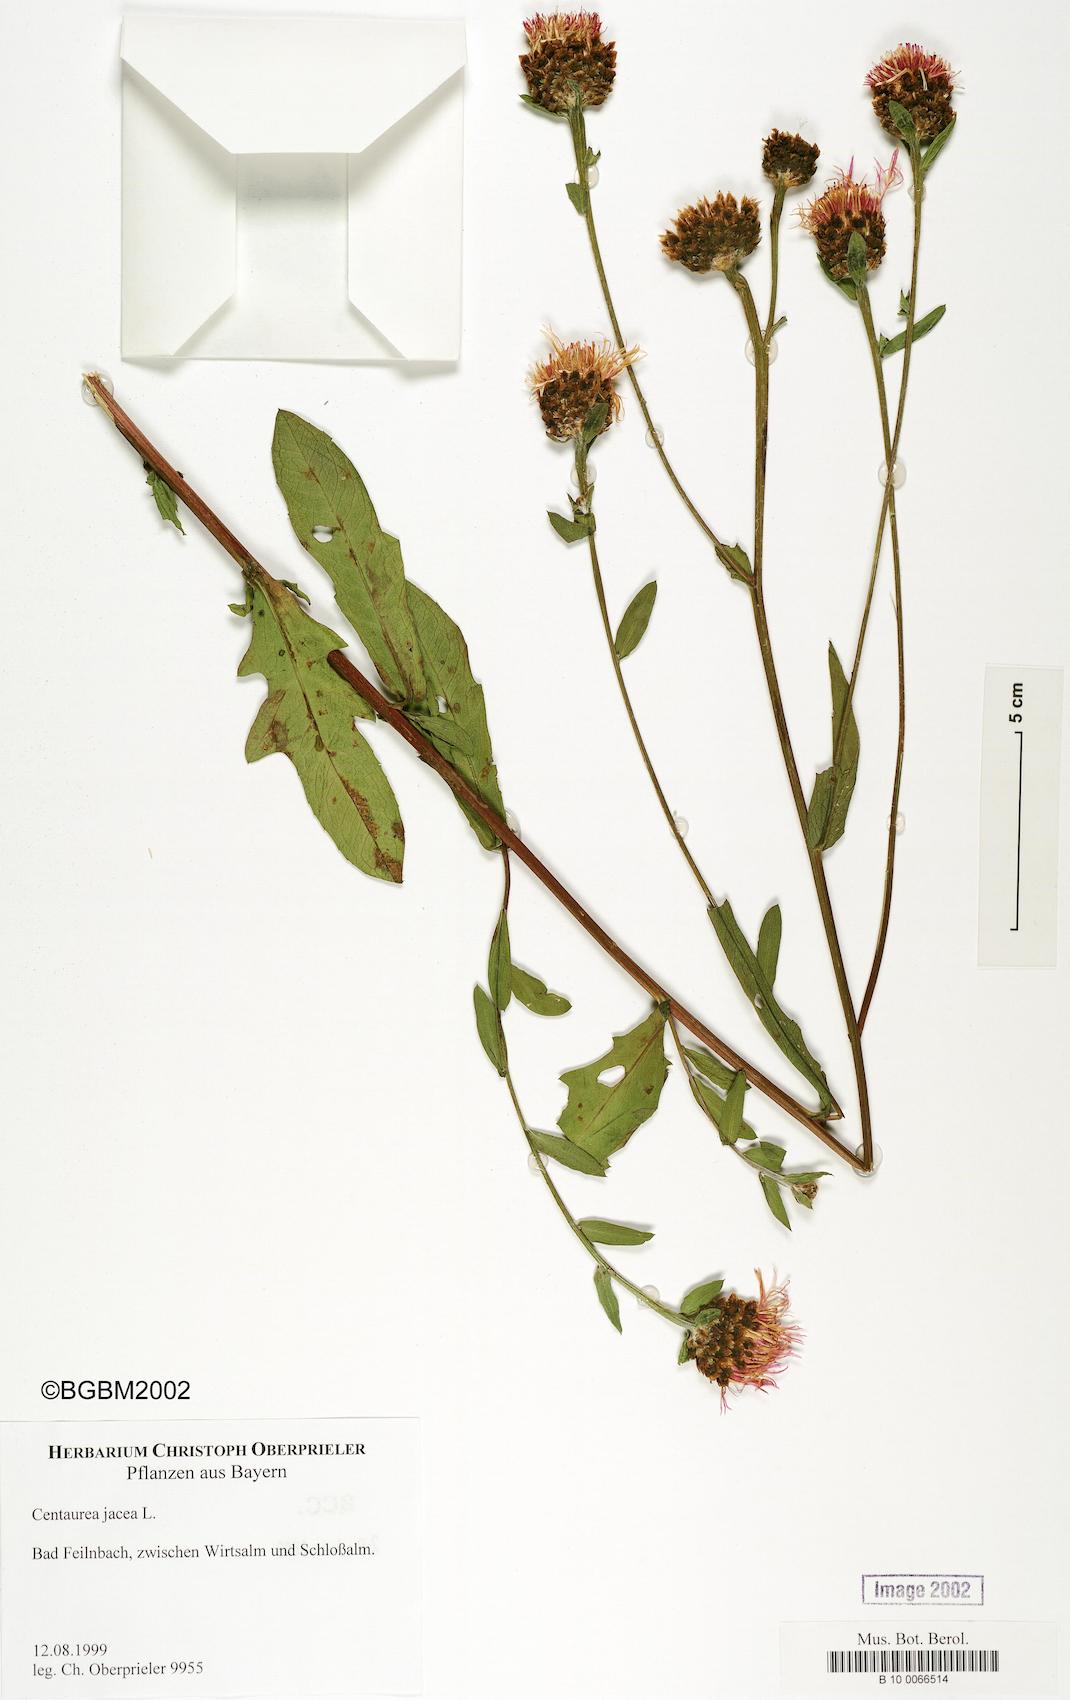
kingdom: Plantae
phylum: Tracheophyta
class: Magnoliopsida
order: Asterales
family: Asteraceae
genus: Centaurea
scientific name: Centaurea jacea
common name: Brown knapweed
